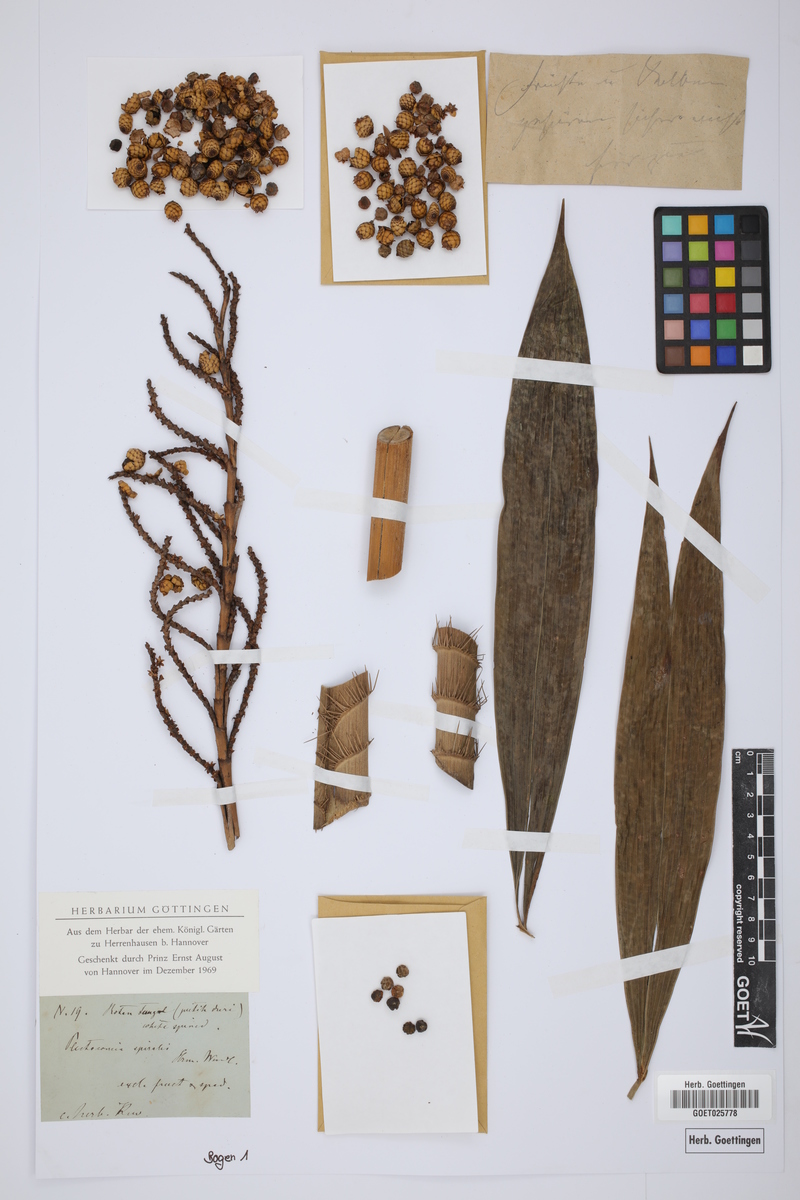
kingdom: Plantae
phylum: Tracheophyta
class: Liliopsida
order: Arecales
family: Arecaceae
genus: Plectocomia
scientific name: Plectocomia
